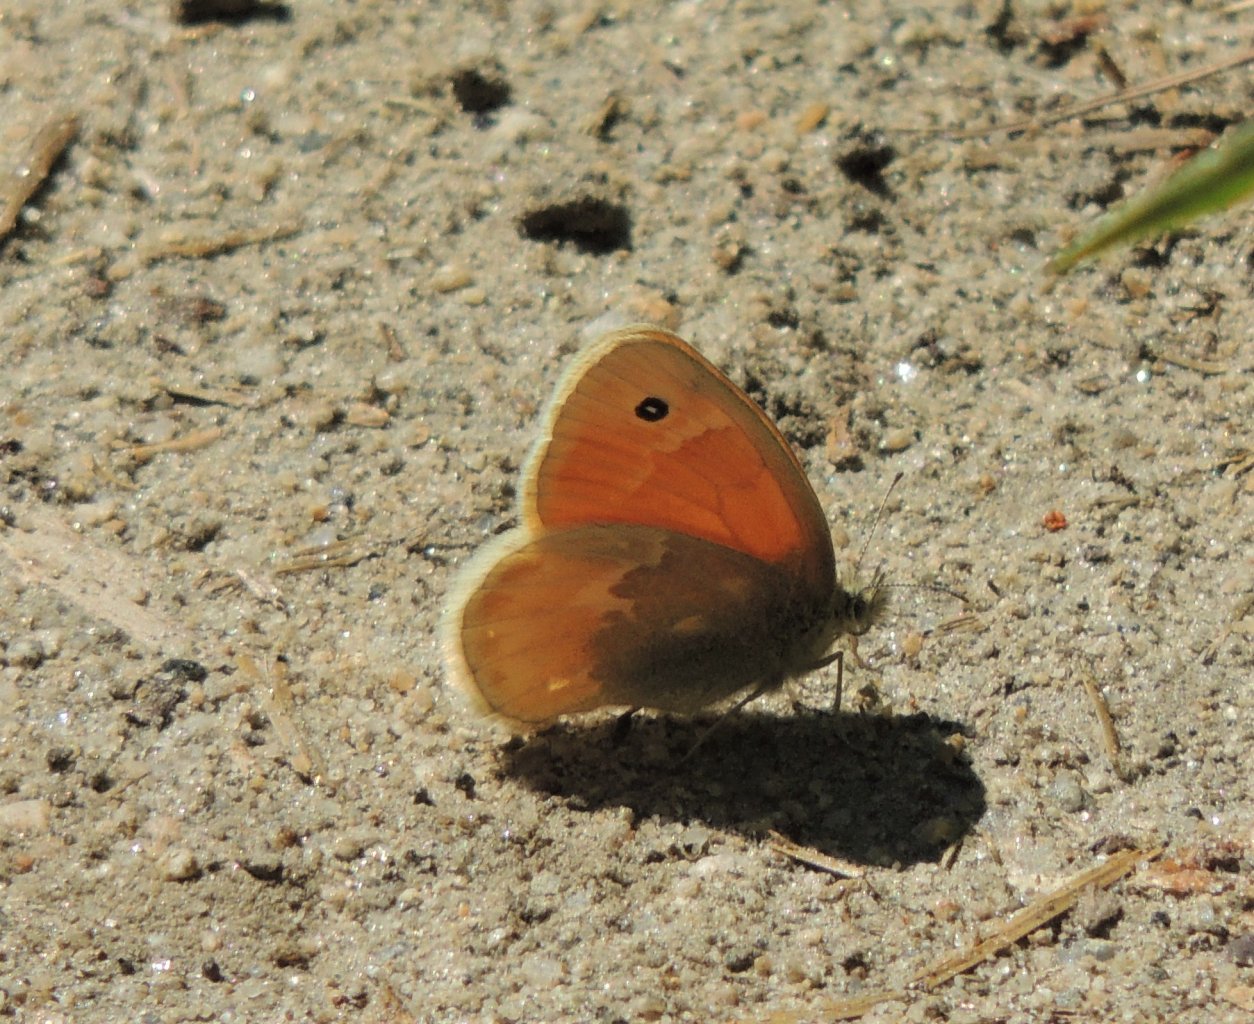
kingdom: Animalia
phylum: Arthropoda
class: Insecta
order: Lepidoptera
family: Nymphalidae
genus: Coenonympha
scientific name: Coenonympha tullia
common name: Large Heath
